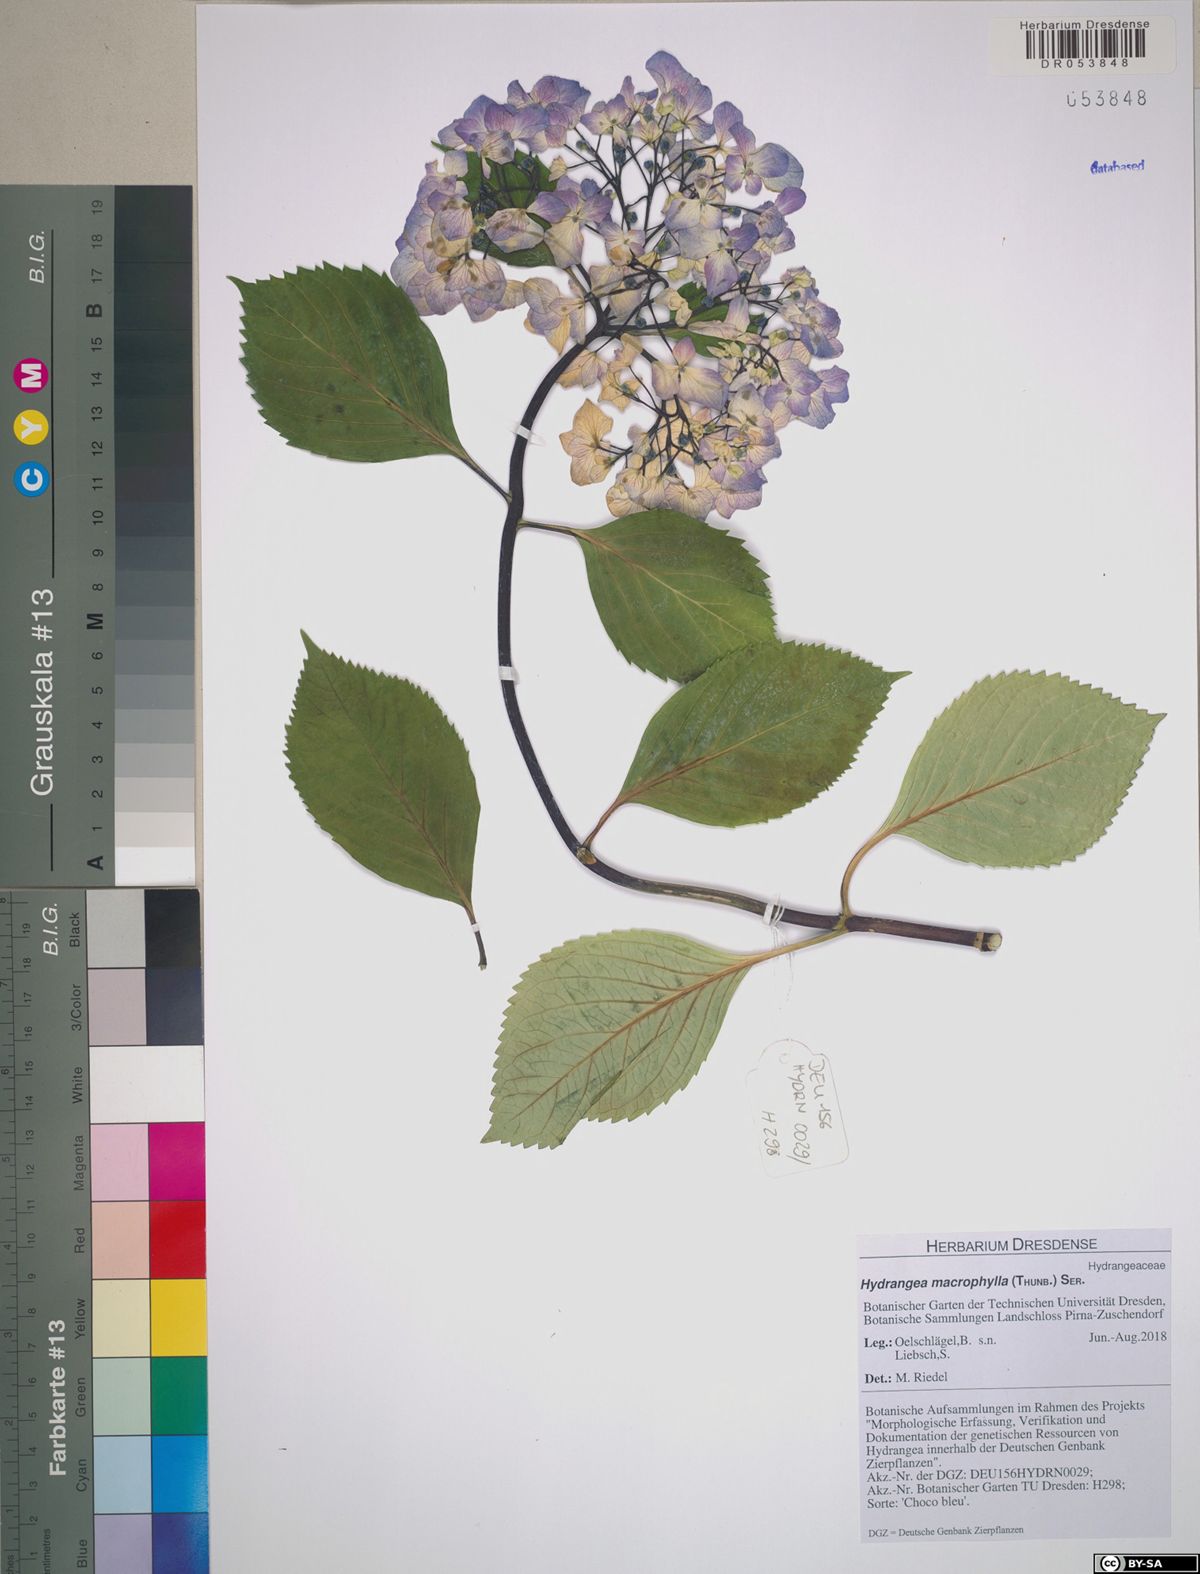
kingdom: Plantae
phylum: Tracheophyta
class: Magnoliopsida
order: Cornales
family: Hydrangeaceae
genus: Hydrangea
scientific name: Hydrangea macrophylla
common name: Hydrangea
